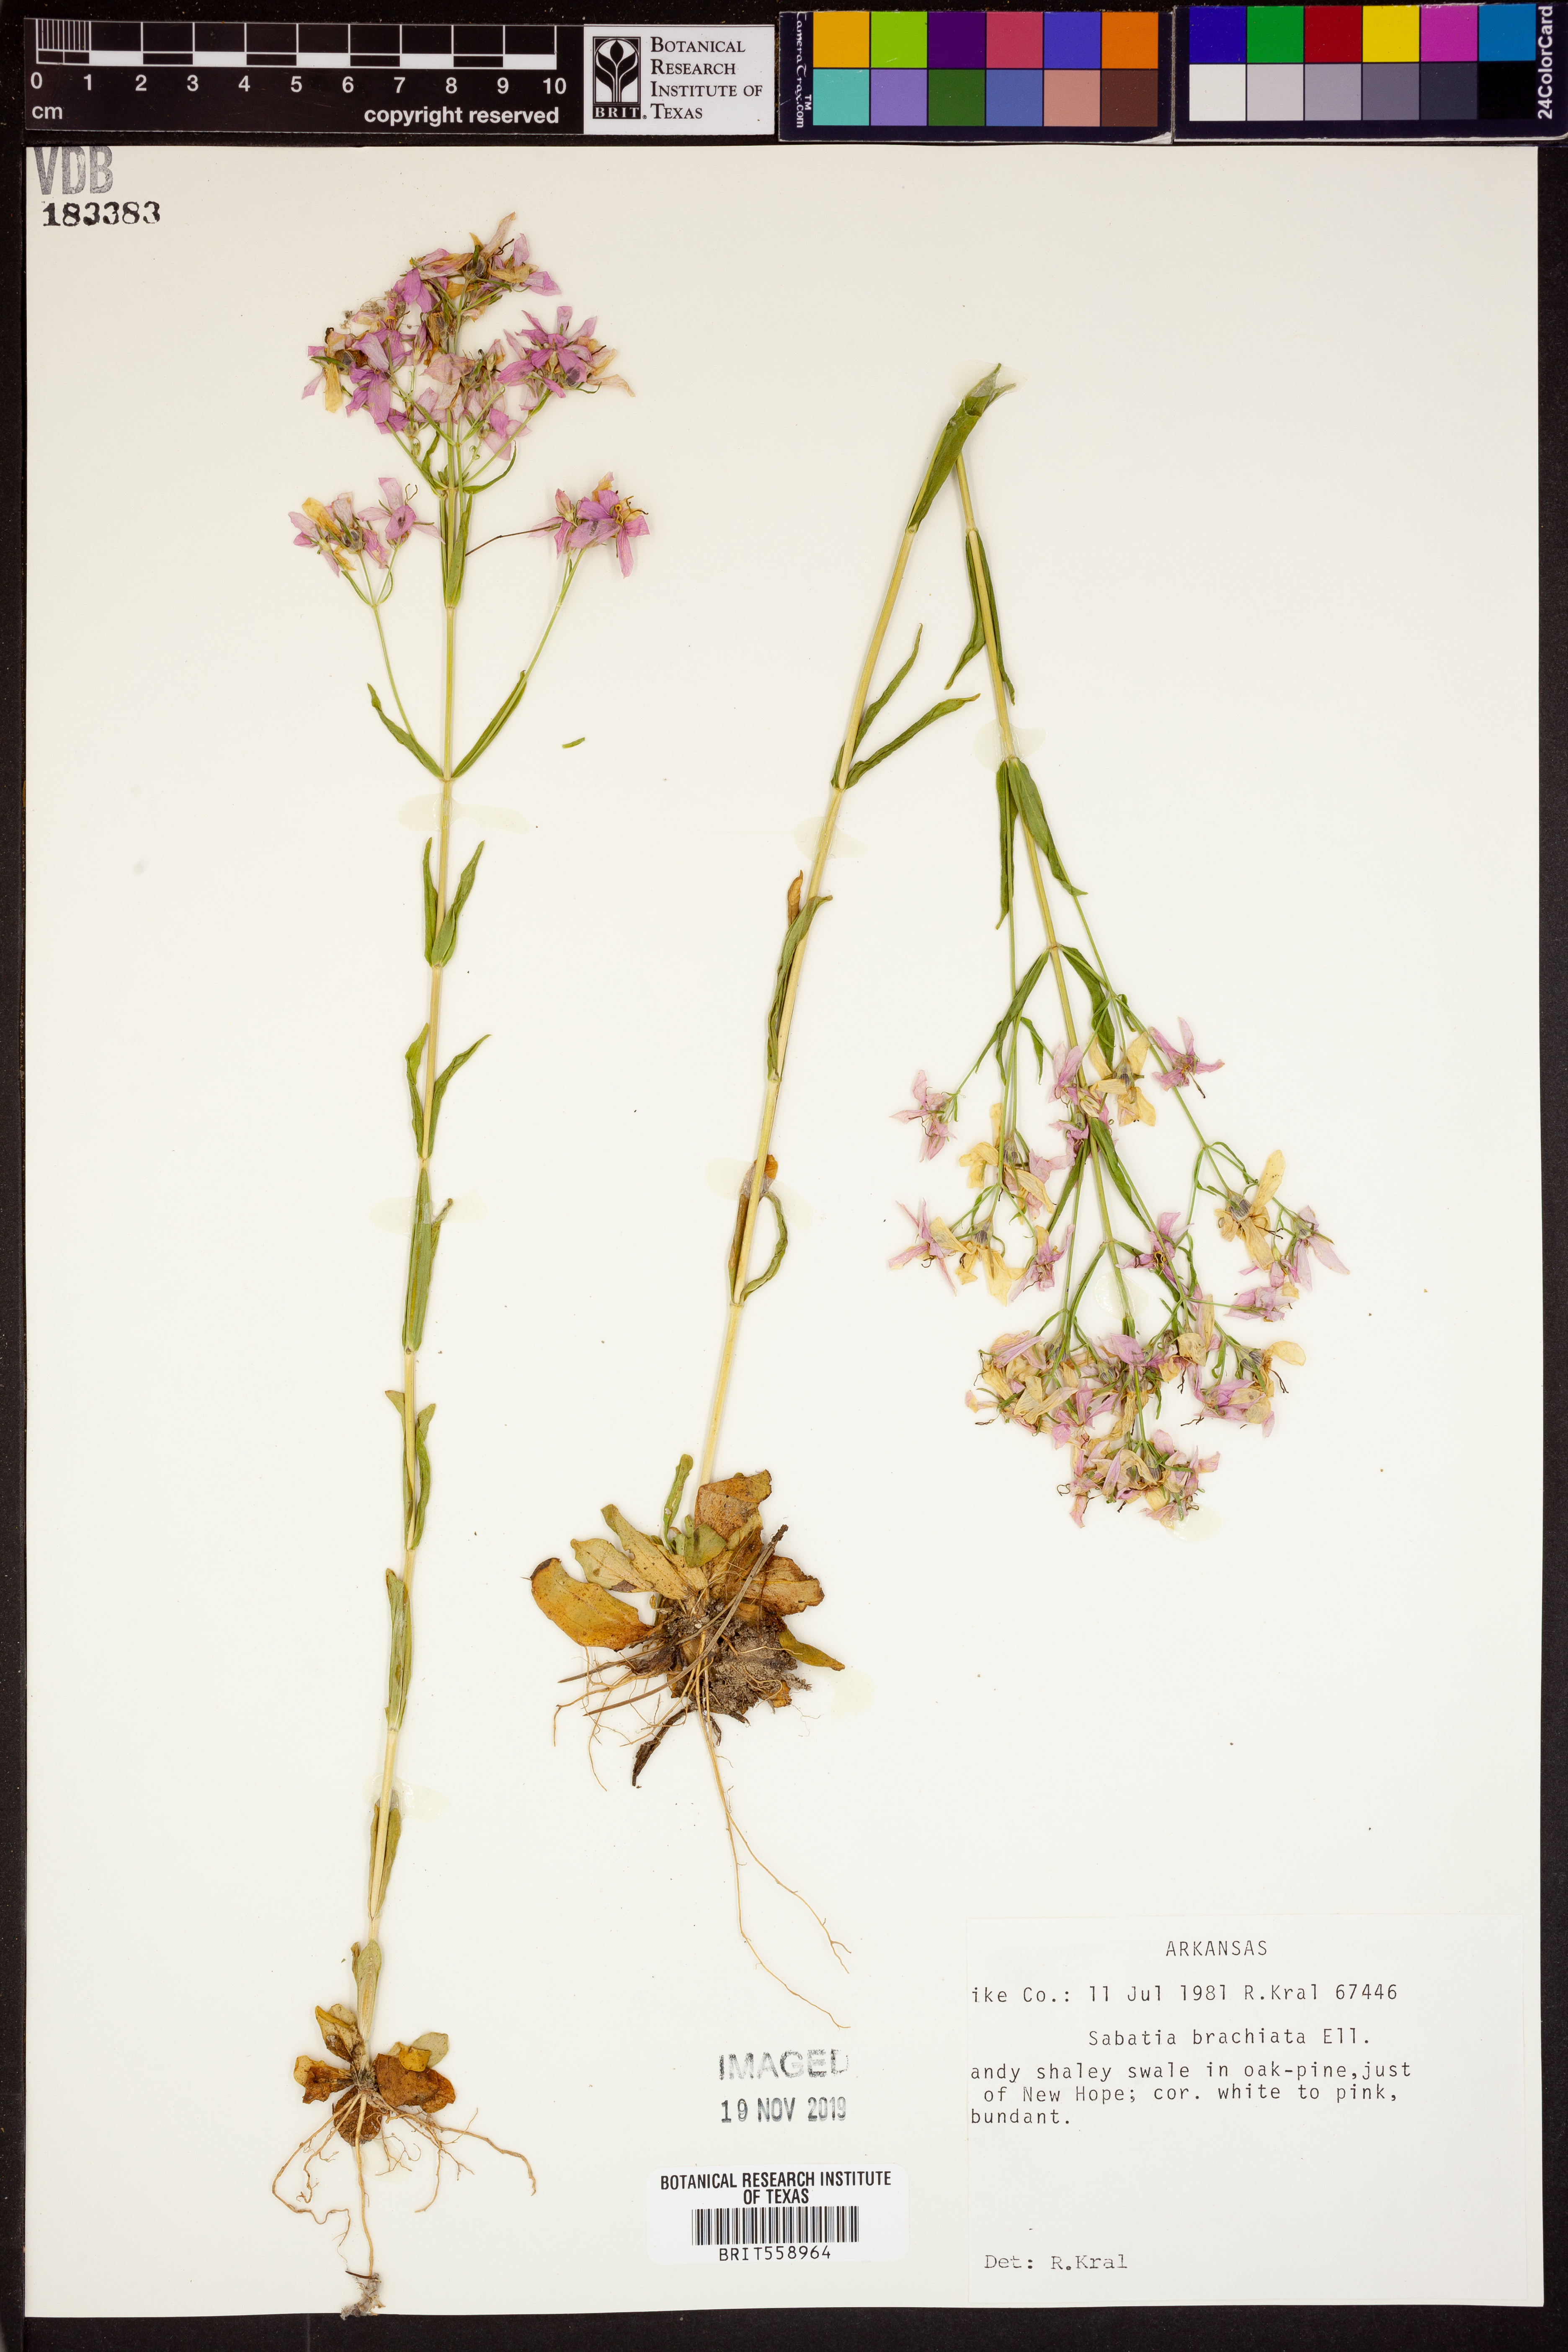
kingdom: Plantae
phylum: Tracheophyta
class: Magnoliopsida
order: Gentianales
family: Gentianaceae
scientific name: Gentianaceae
